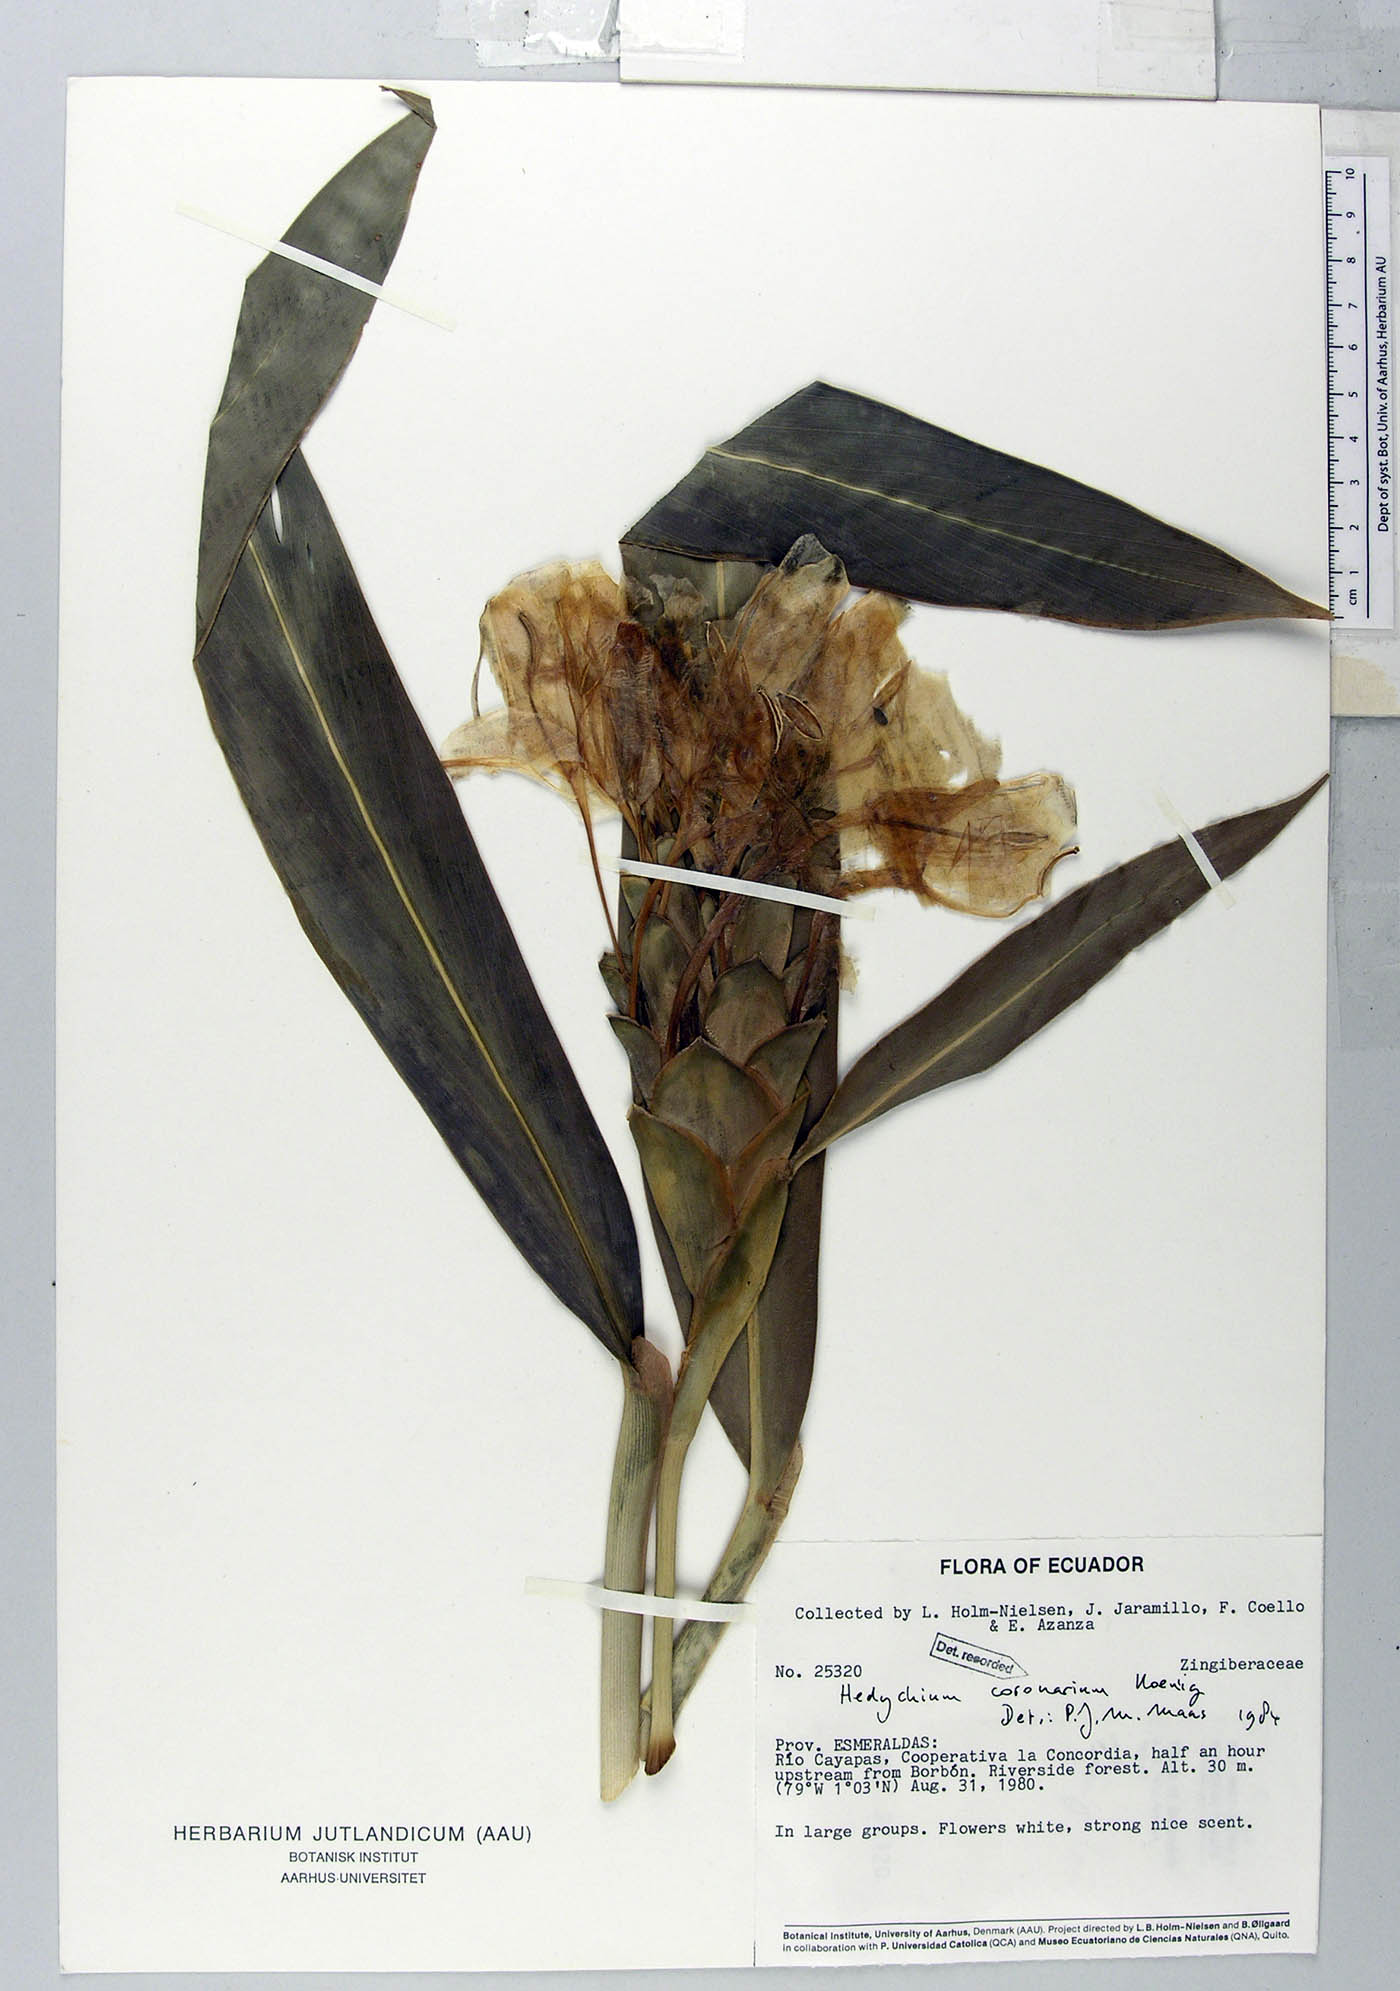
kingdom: Plantae
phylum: Tracheophyta
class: Liliopsida
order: Zingiberales
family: Zingiberaceae
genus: Hedychium
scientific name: Hedychium coronarium
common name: White garland-lily
